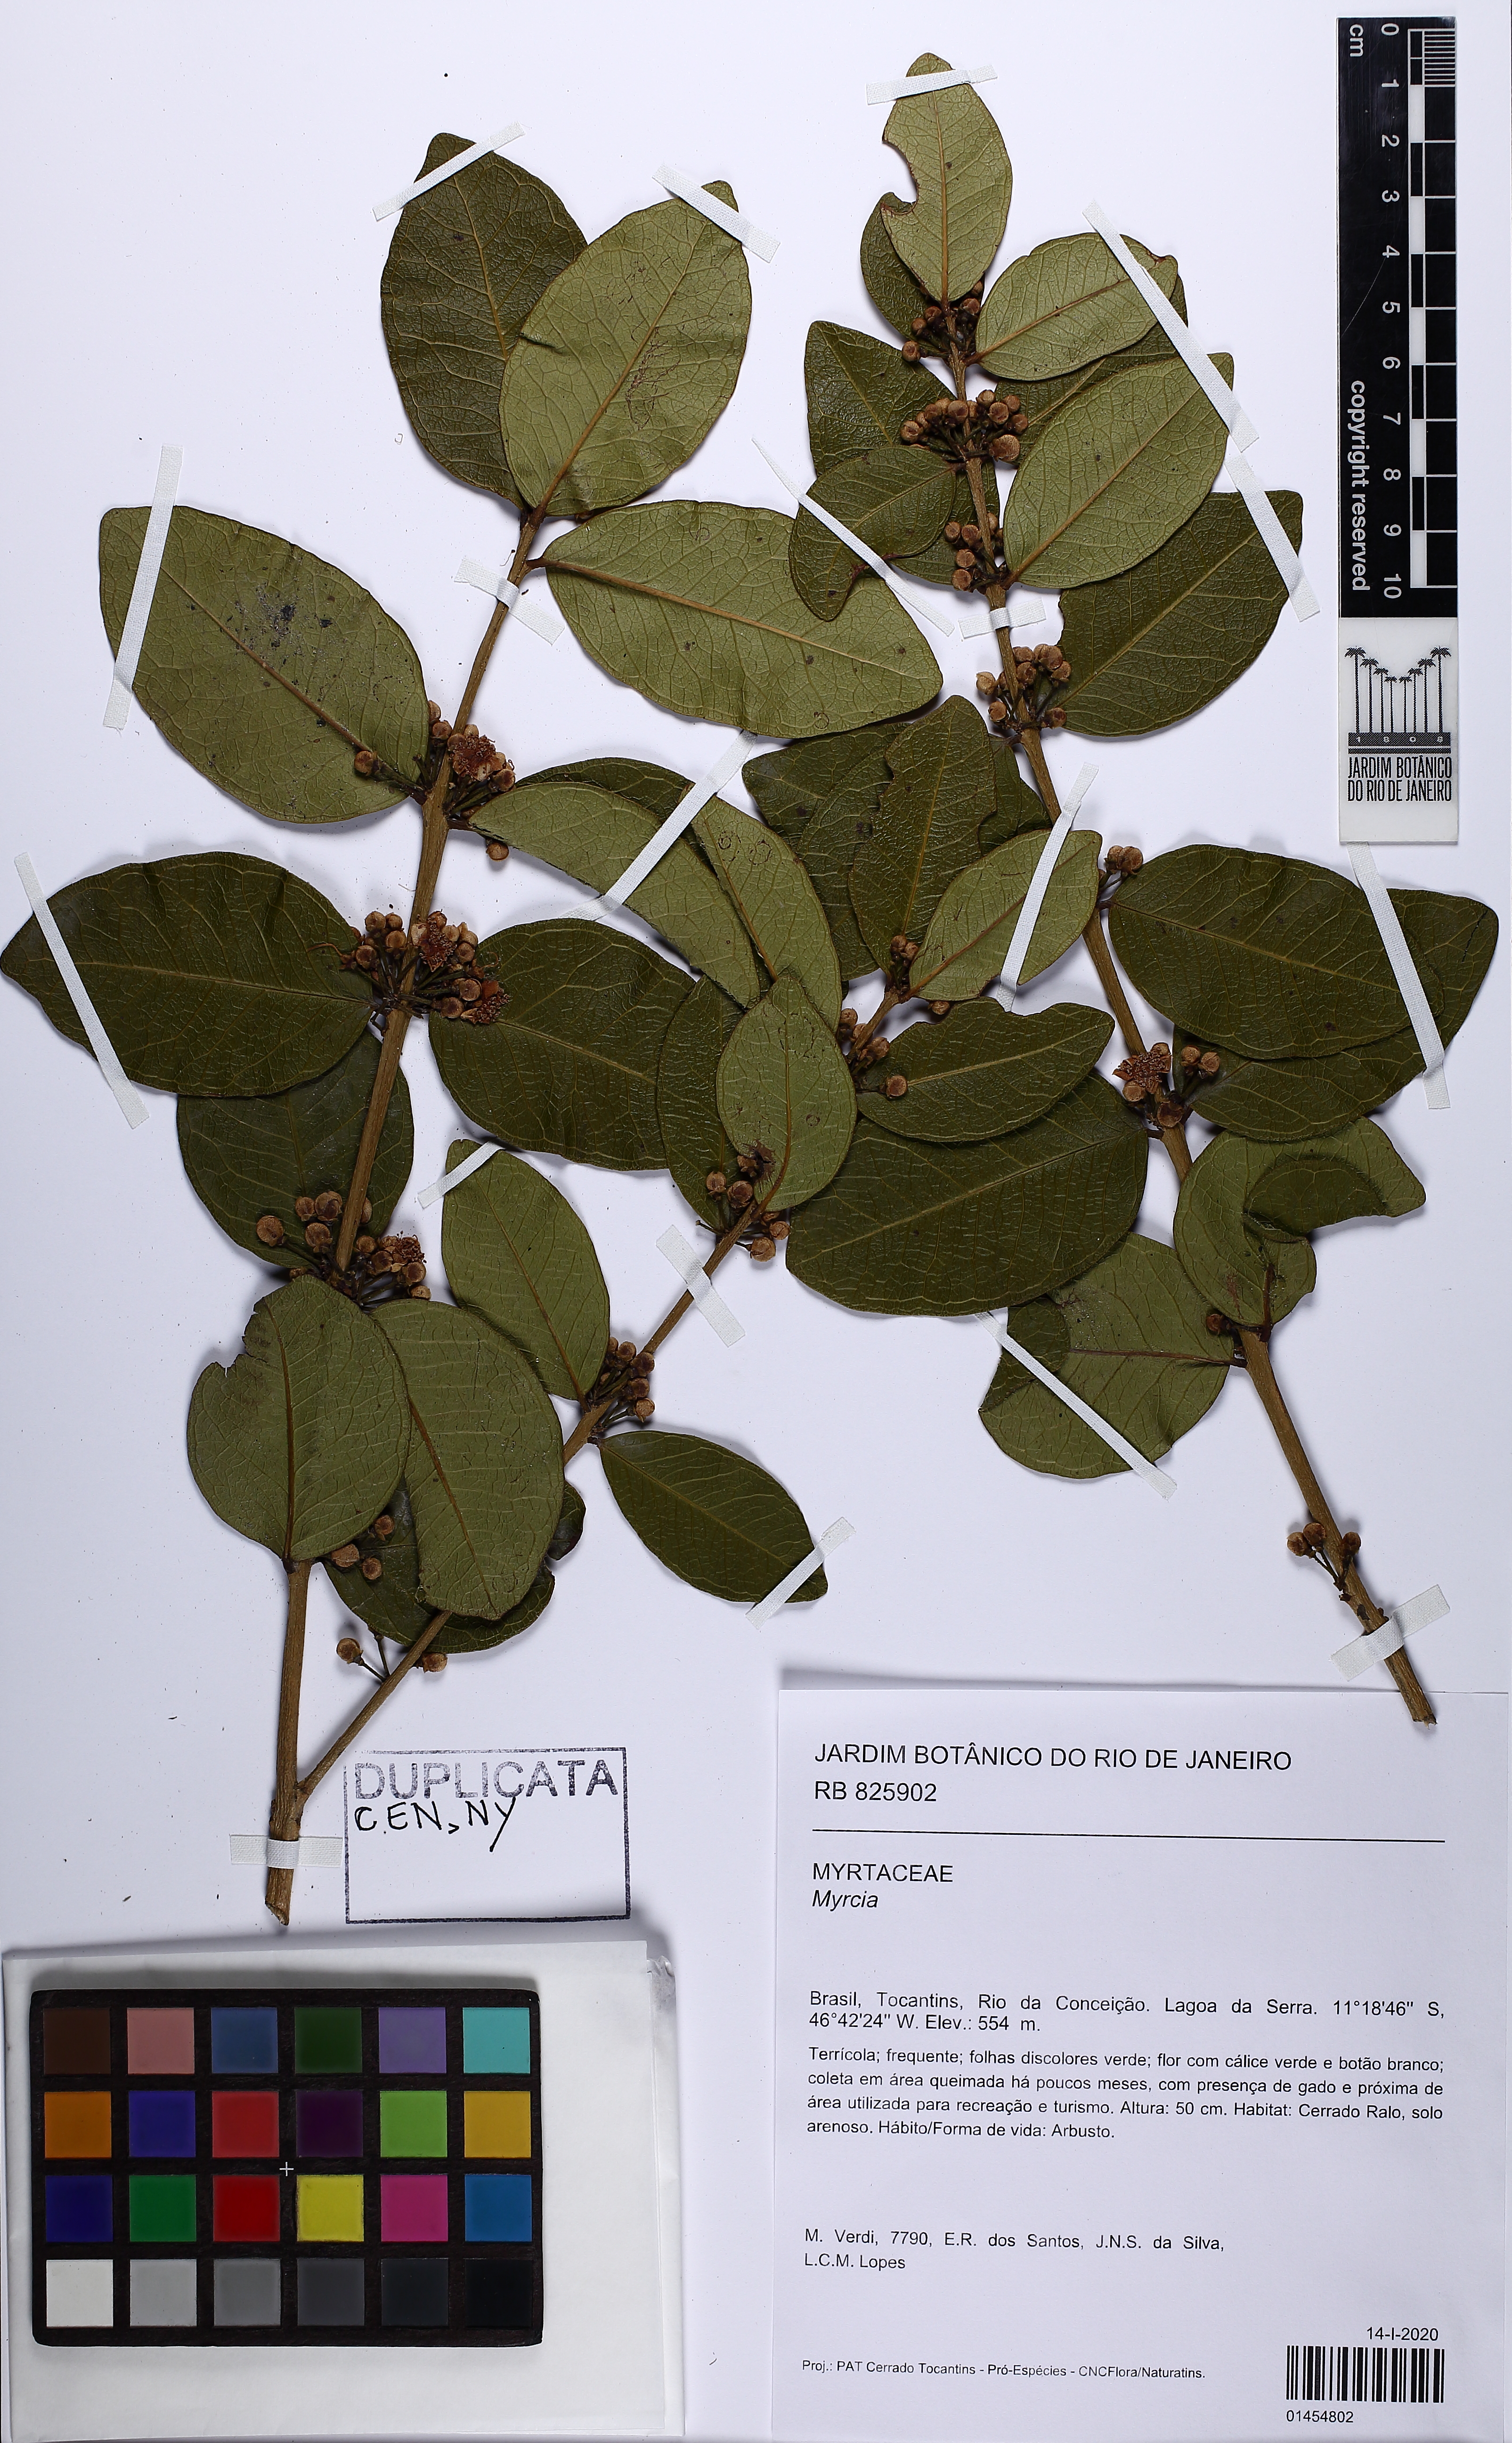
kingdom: Plantae
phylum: Tracheophyta
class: Magnoliopsida
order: Myrtales
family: Myrtaceae
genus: Eugenia
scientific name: Eugenia stictopetala
